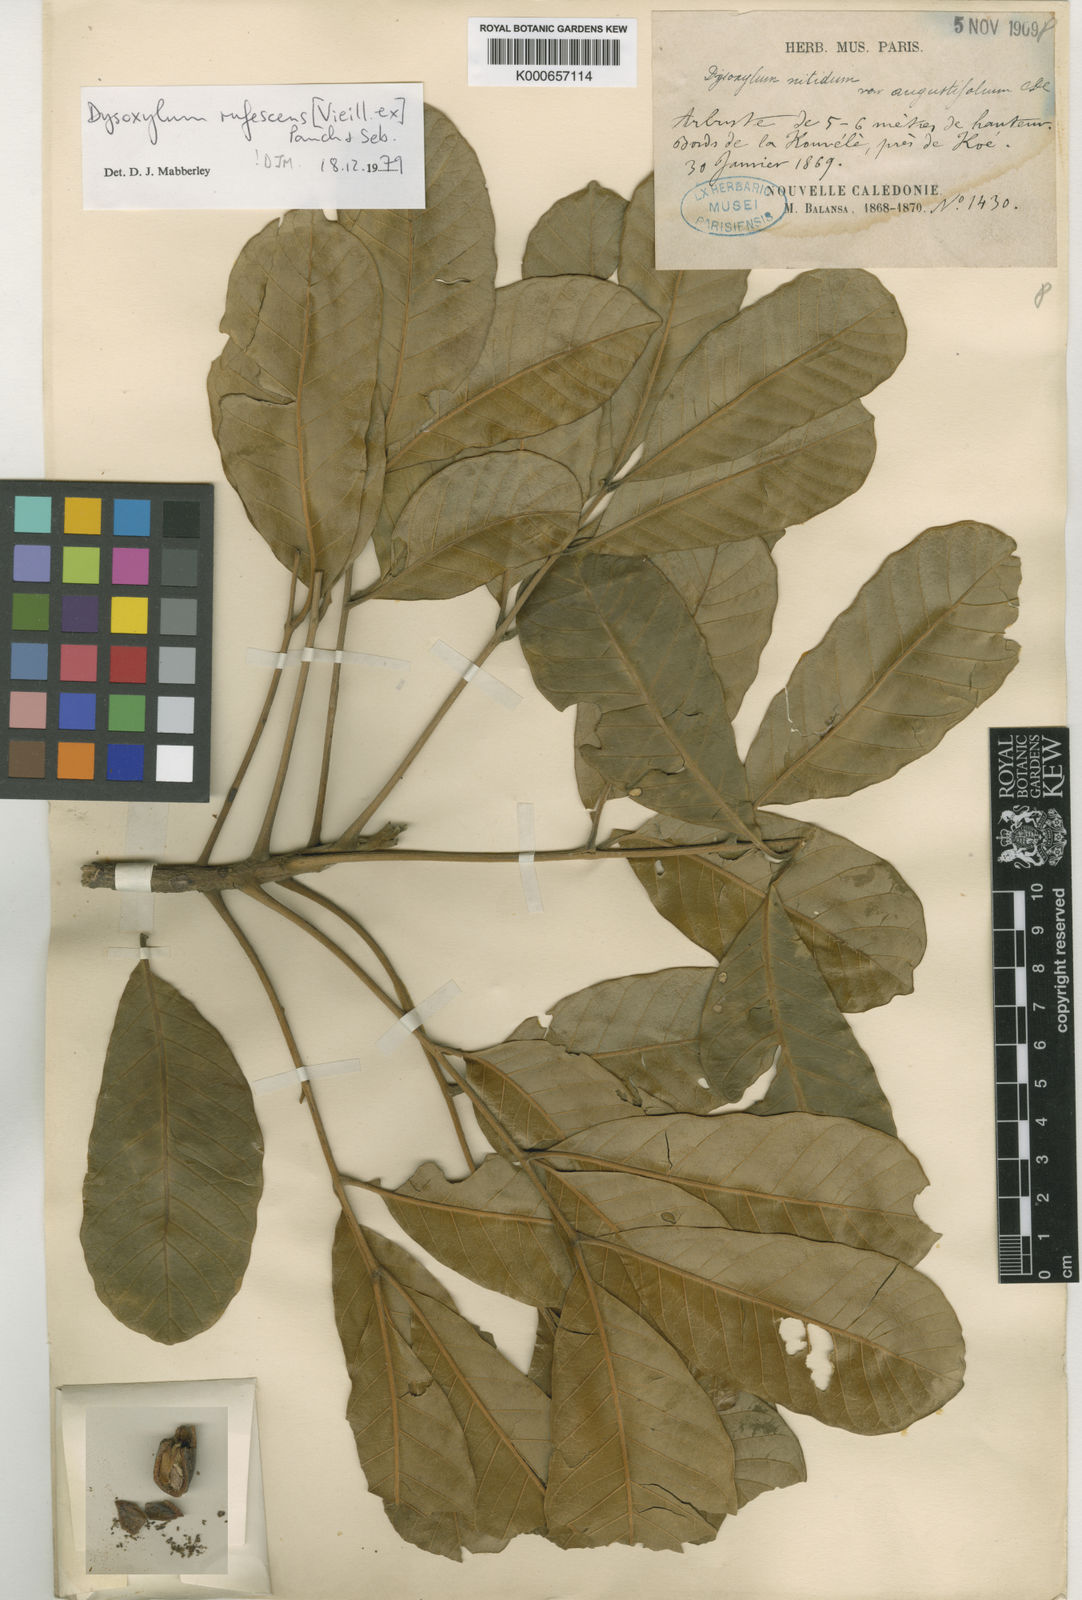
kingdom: Plantae
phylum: Tracheophyta
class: Magnoliopsida
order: Sapindales
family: Meliaceae
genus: Didymocheton
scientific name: Didymocheton rufescens
